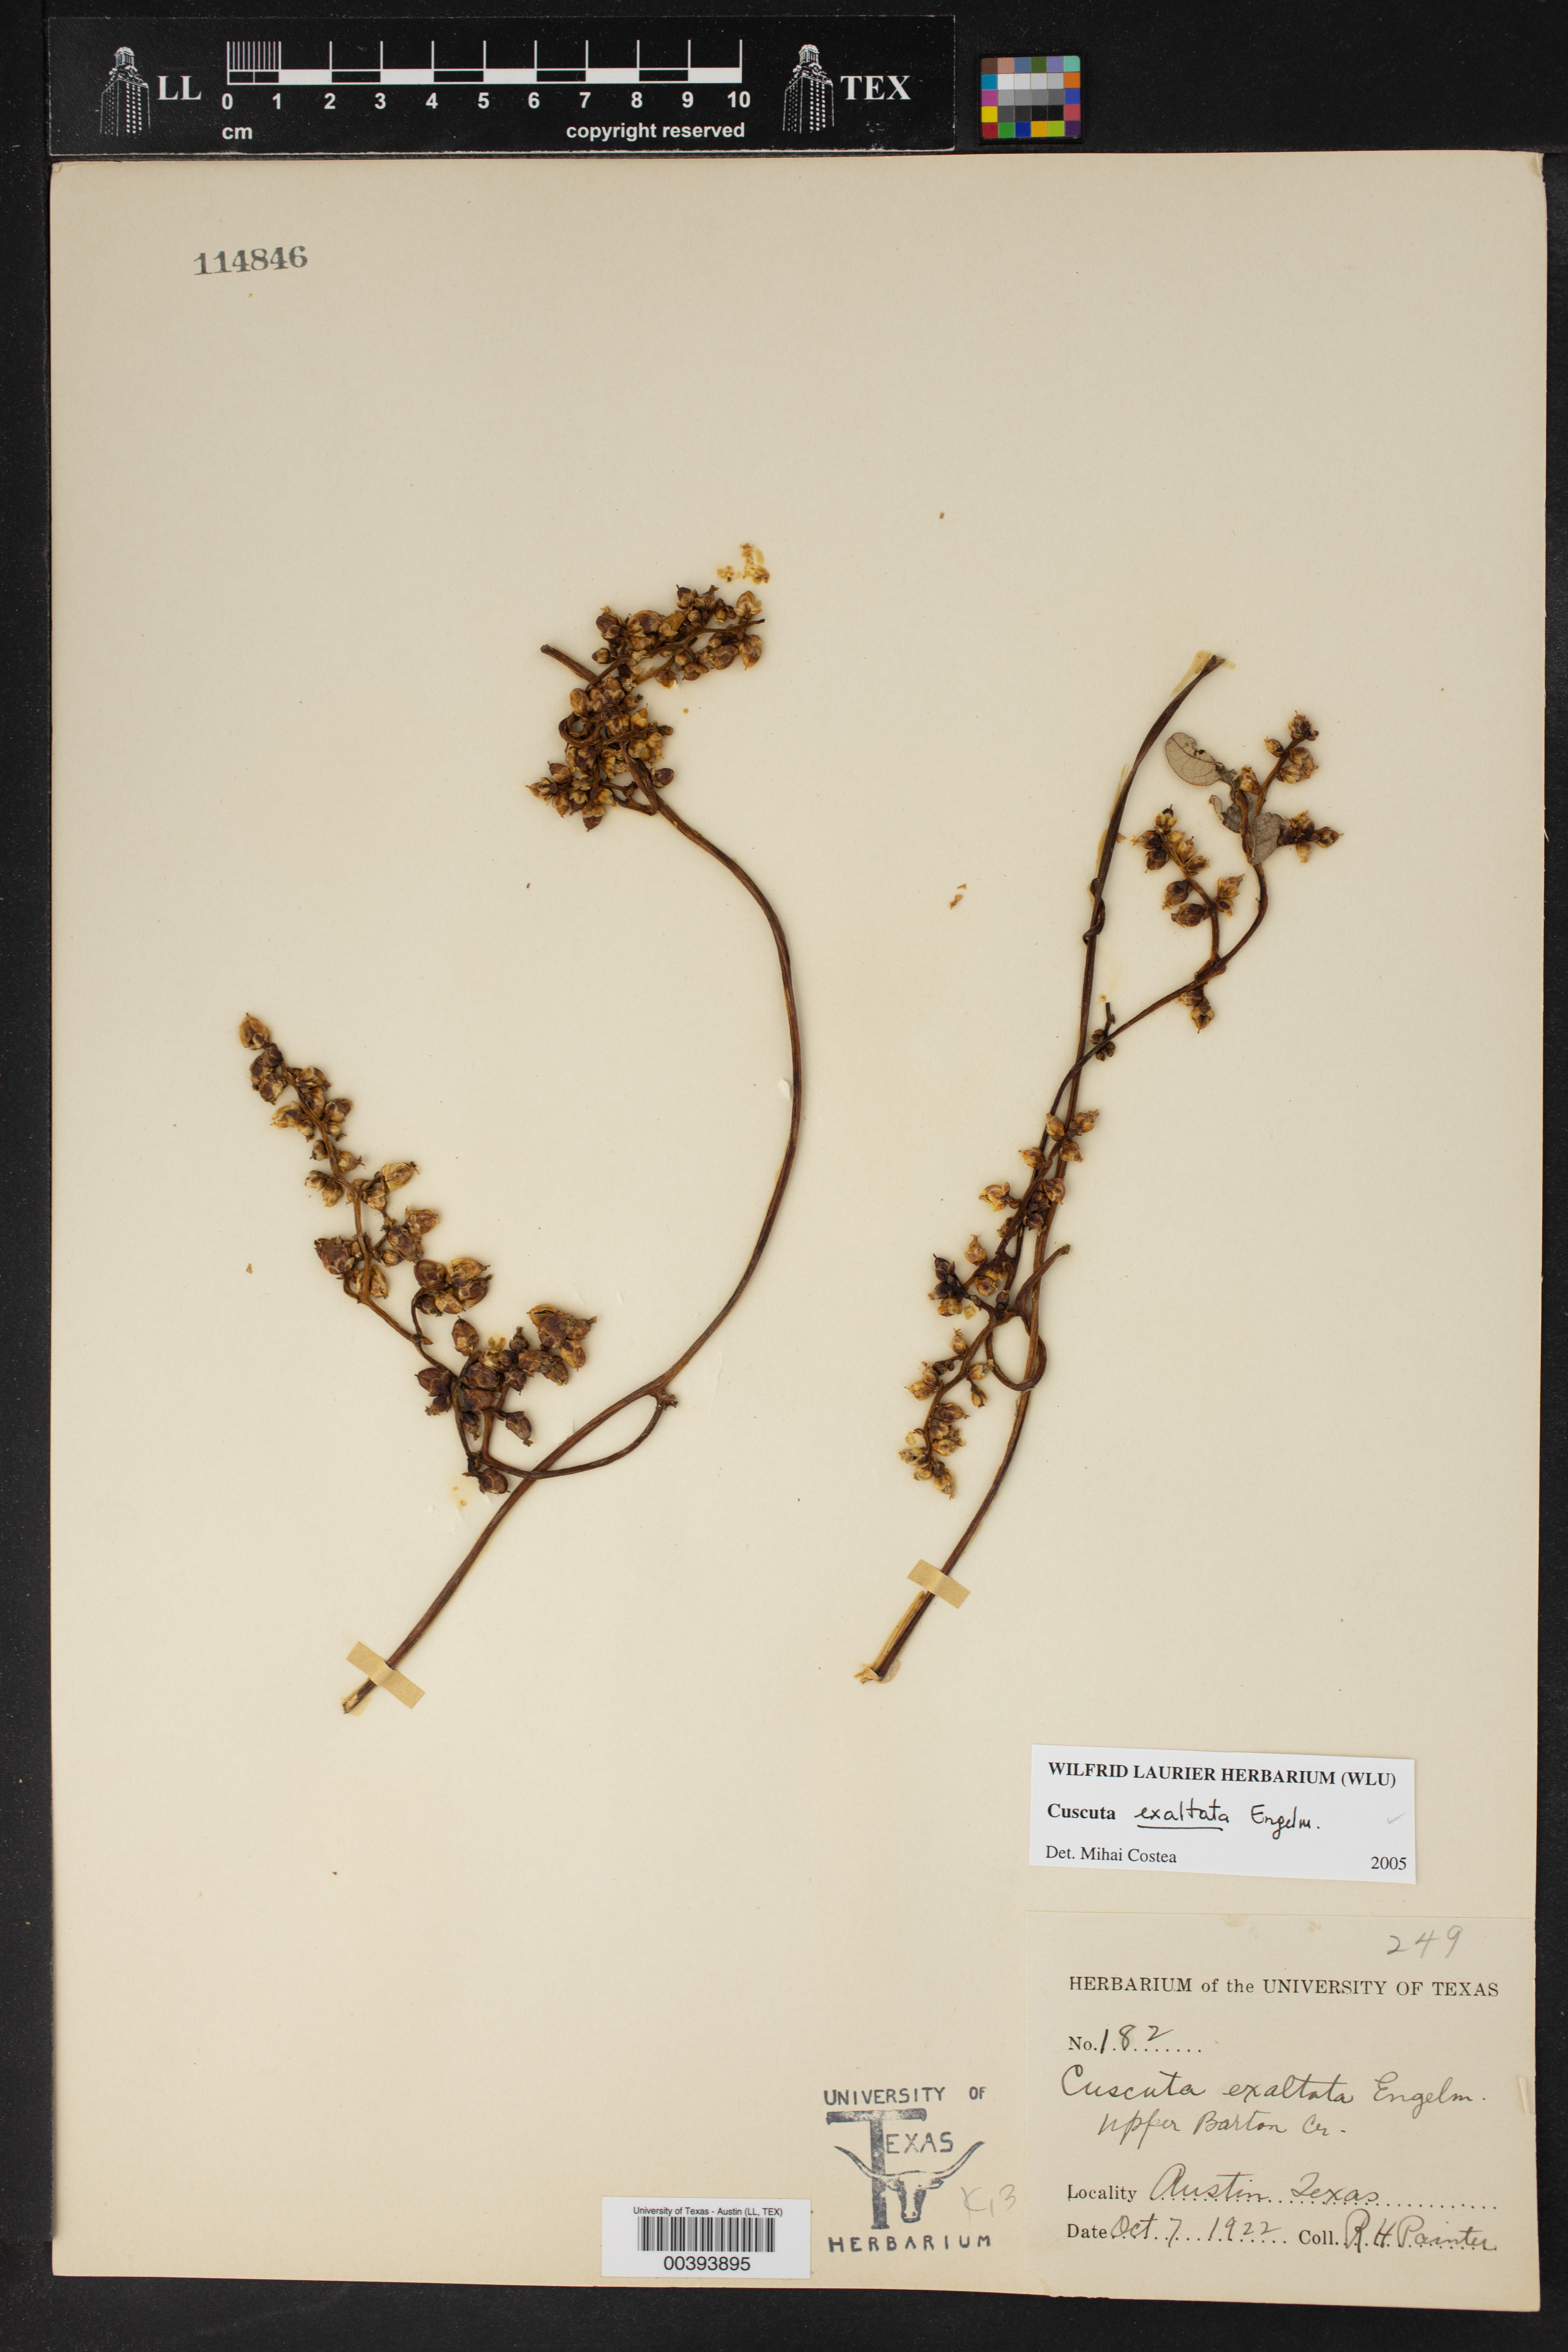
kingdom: Plantae
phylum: Tracheophyta
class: Magnoliopsida
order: Solanales
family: Convolvulaceae
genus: Cuscuta
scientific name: Cuscuta exaltata
